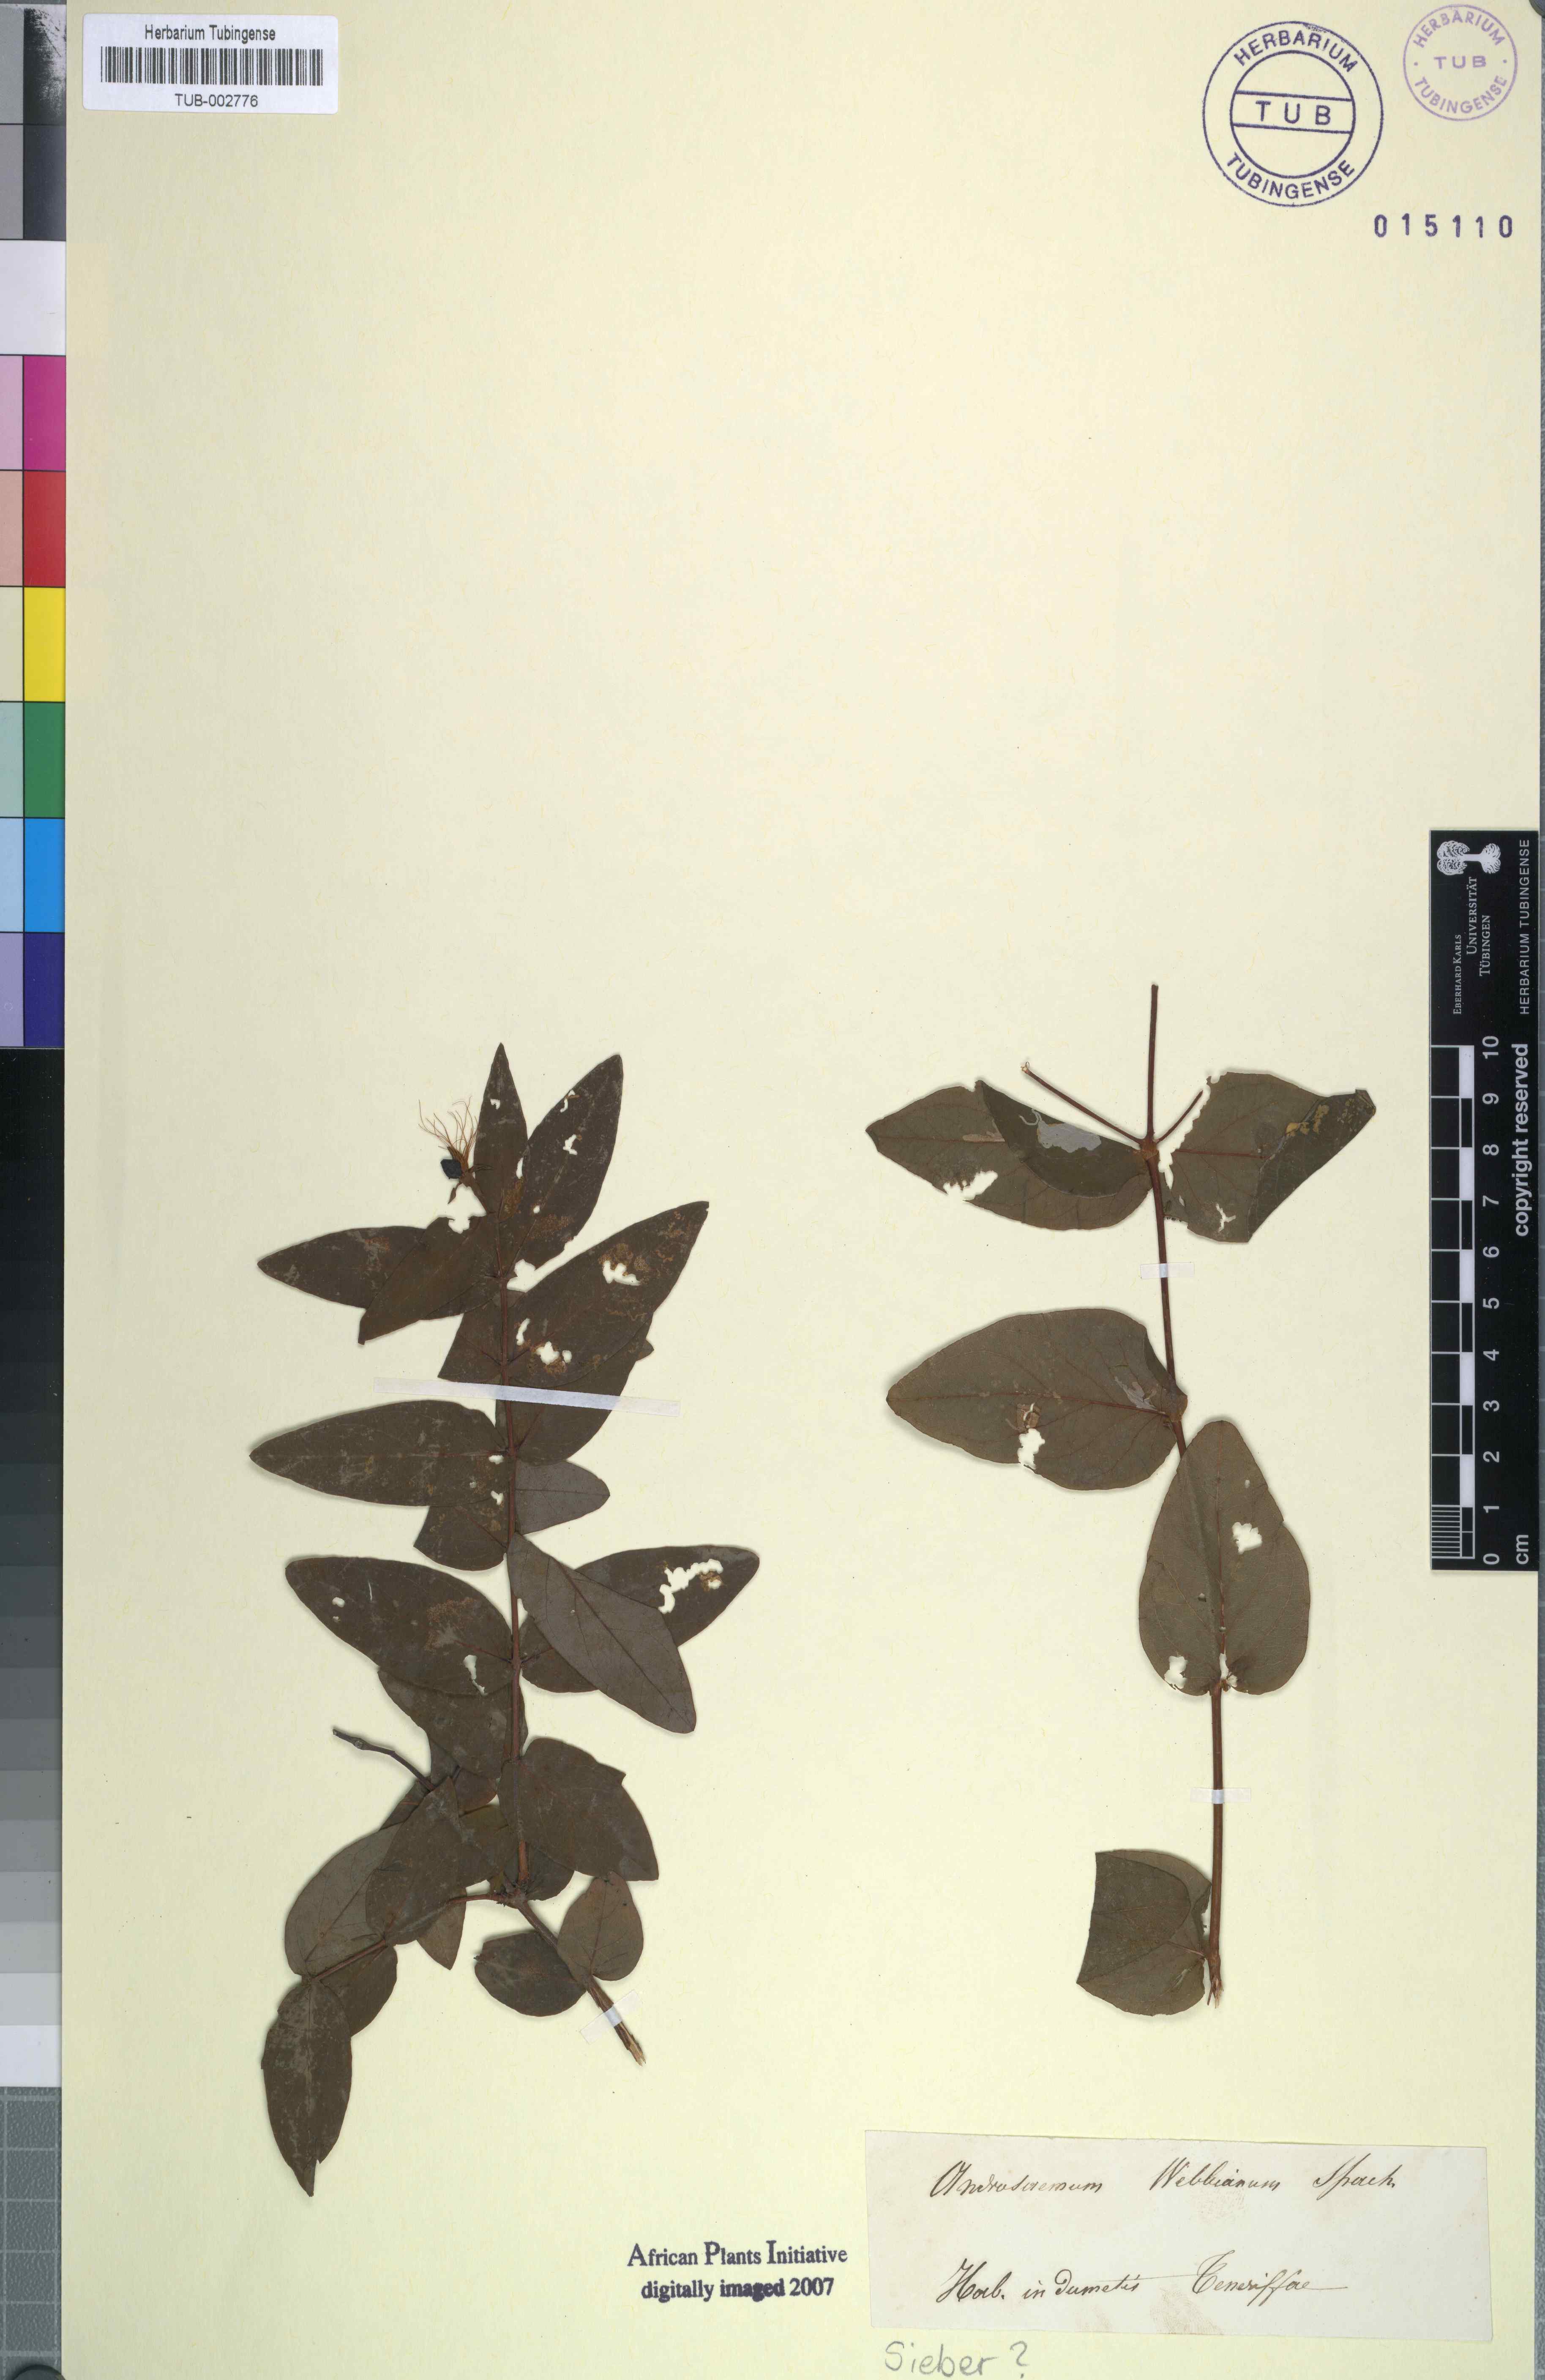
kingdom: Plantae
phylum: Tracheophyta
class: Magnoliopsida
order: Malpighiales
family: Hypericaceae
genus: Hypericum
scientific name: Hypericum calycinum
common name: Rose-of-sharon
